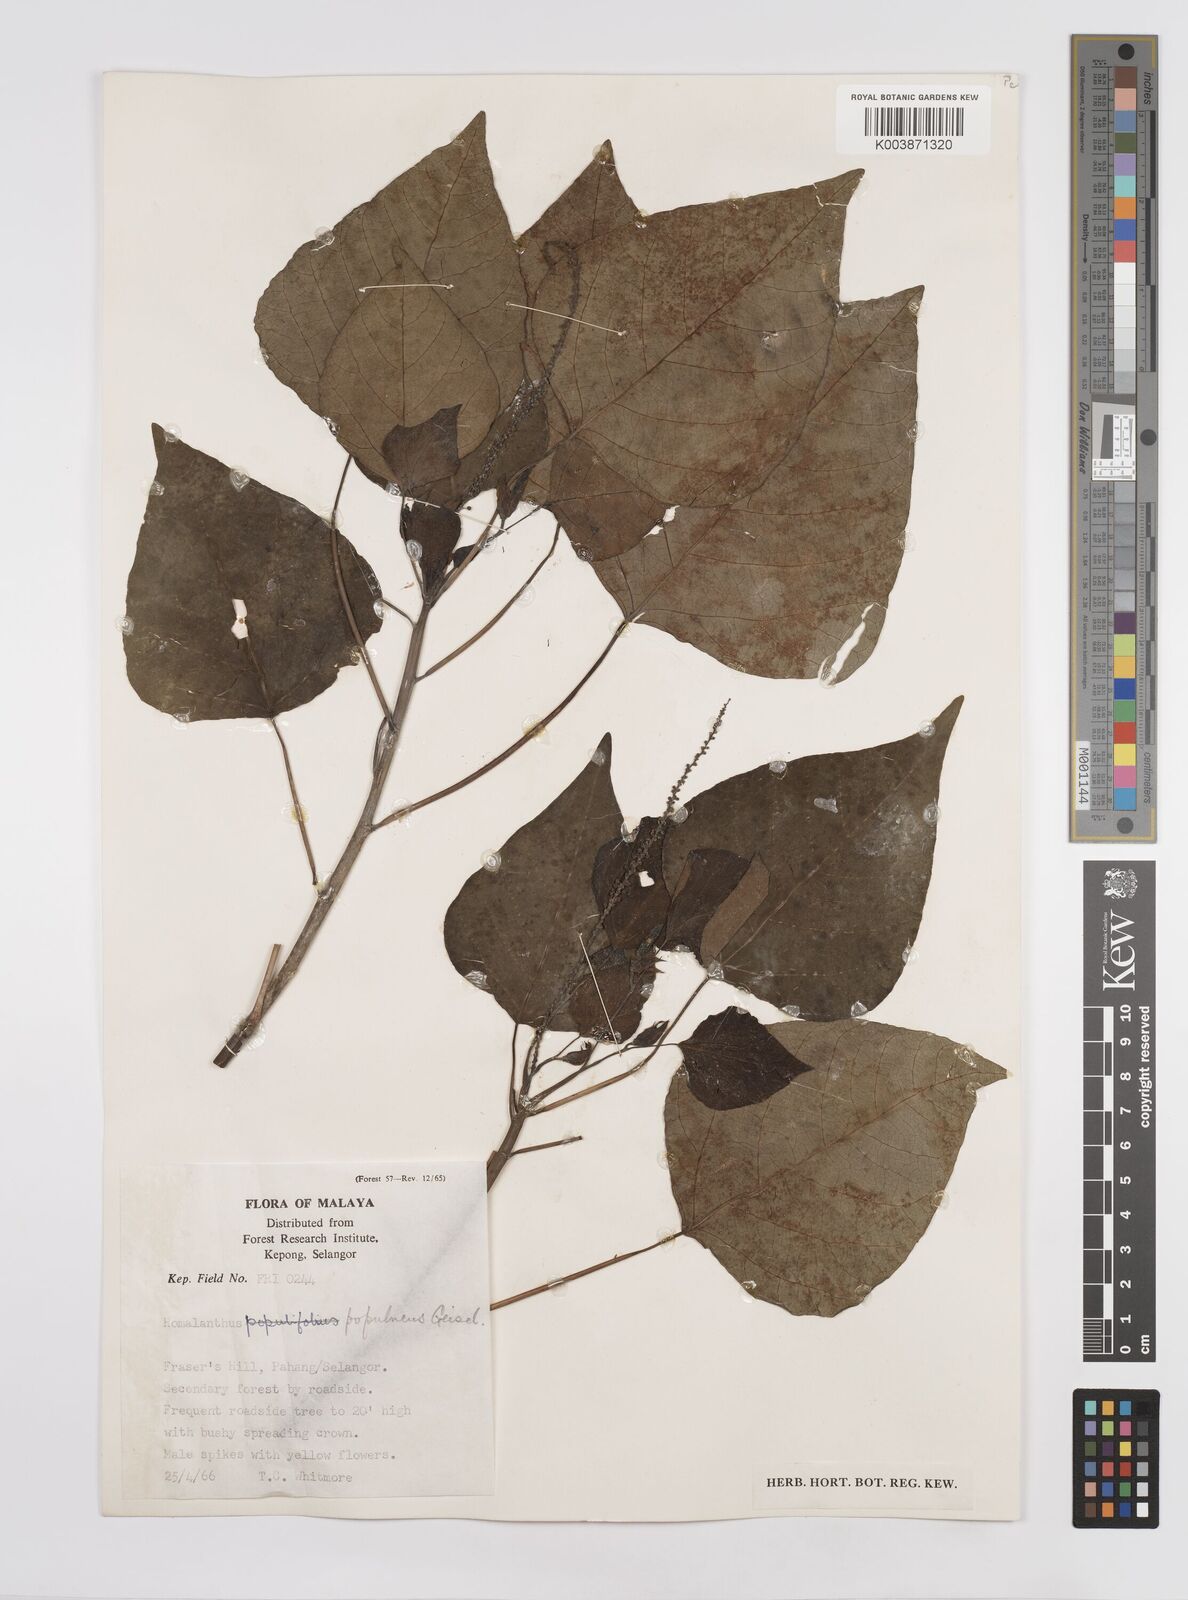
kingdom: Plantae
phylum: Tracheophyta
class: Magnoliopsida
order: Malpighiales
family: Euphorbiaceae
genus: Homalanthus
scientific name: Homalanthus populneus
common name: Spurge
